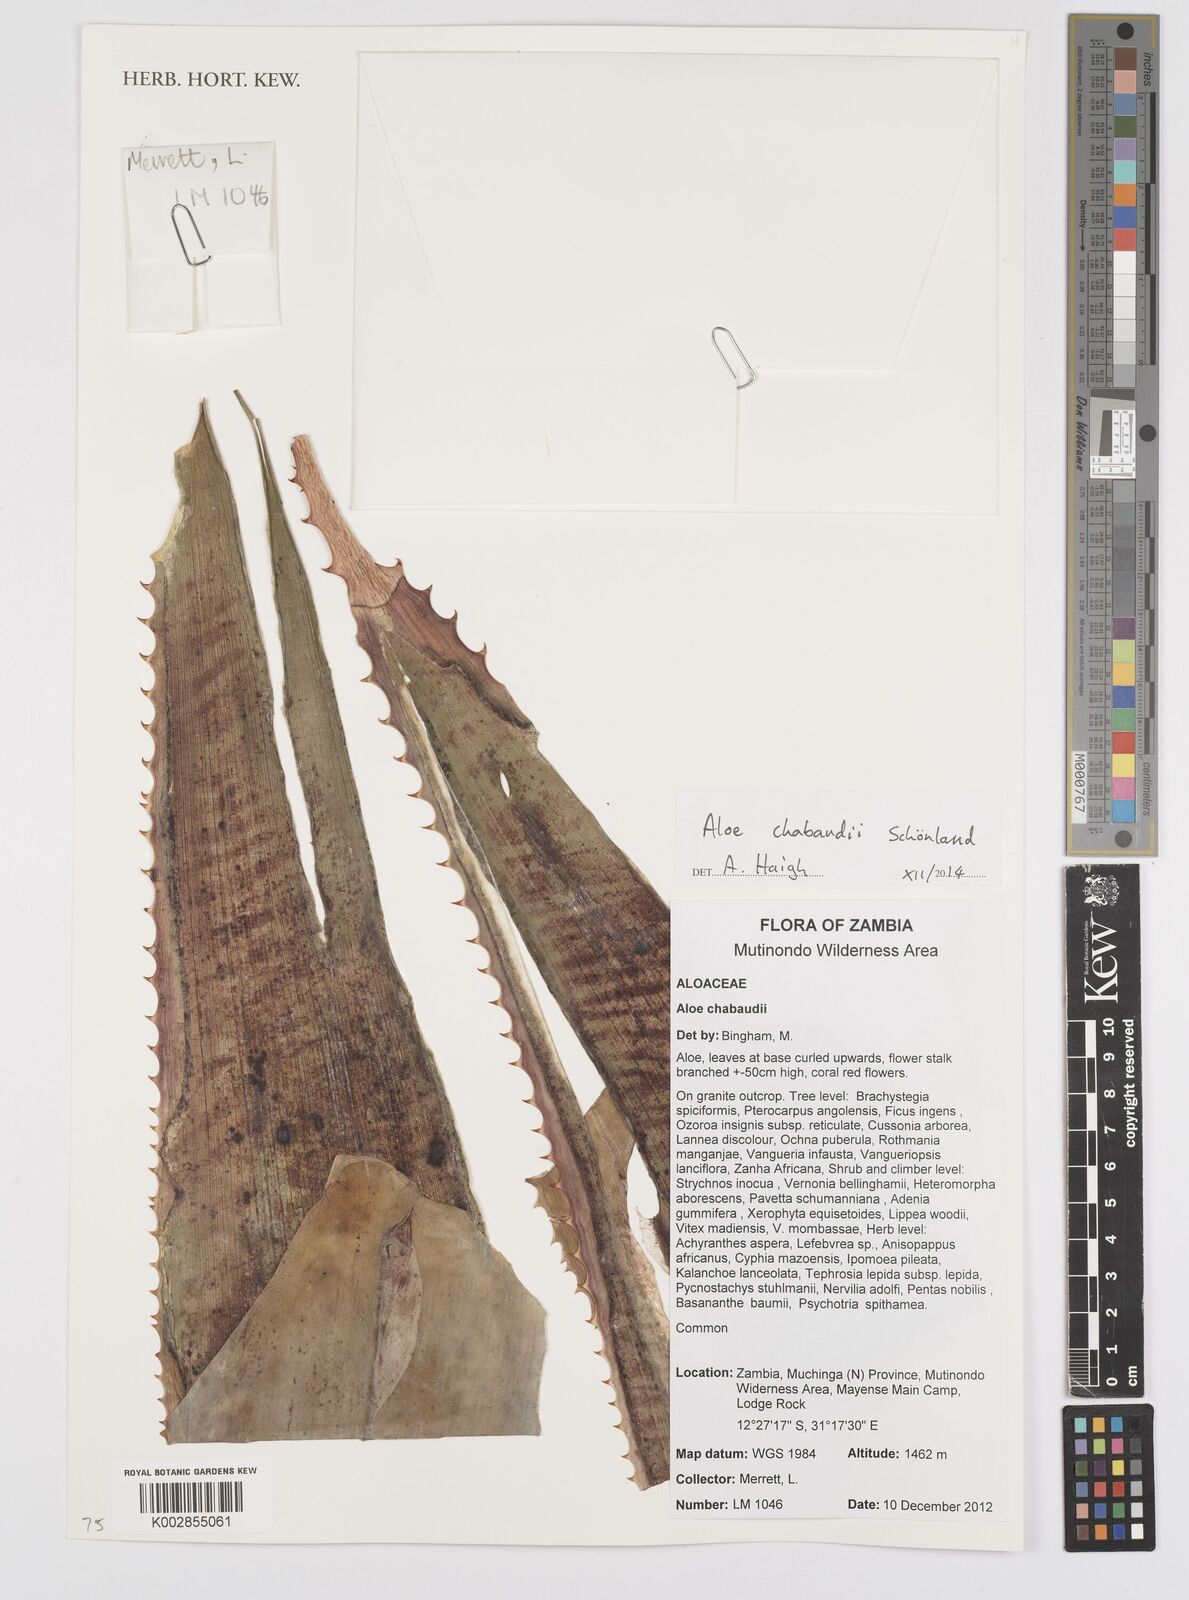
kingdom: Plantae
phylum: Tracheophyta
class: Liliopsida
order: Asparagales
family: Asphodelaceae
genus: Aloe
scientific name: Aloe chabaudii
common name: Chabaud's aloe
